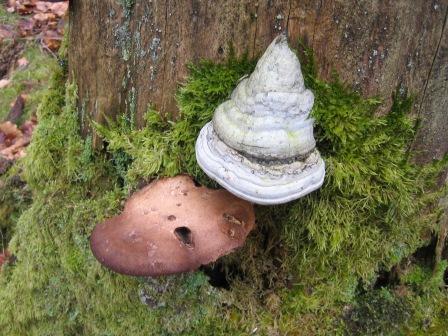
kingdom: Fungi
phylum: Basidiomycota
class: Agaricomycetes
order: Polyporales
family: Fomitopsidaceae
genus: Fomitopsis
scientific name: Fomitopsis betulina
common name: birkeporesvamp
